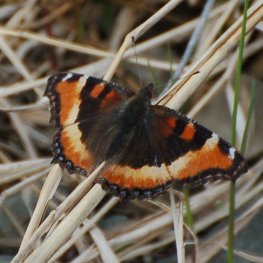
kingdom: Animalia
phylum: Arthropoda
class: Insecta
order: Lepidoptera
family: Nymphalidae
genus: Aglais
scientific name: Aglais milberti
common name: Milbert's Tortoiseshell
